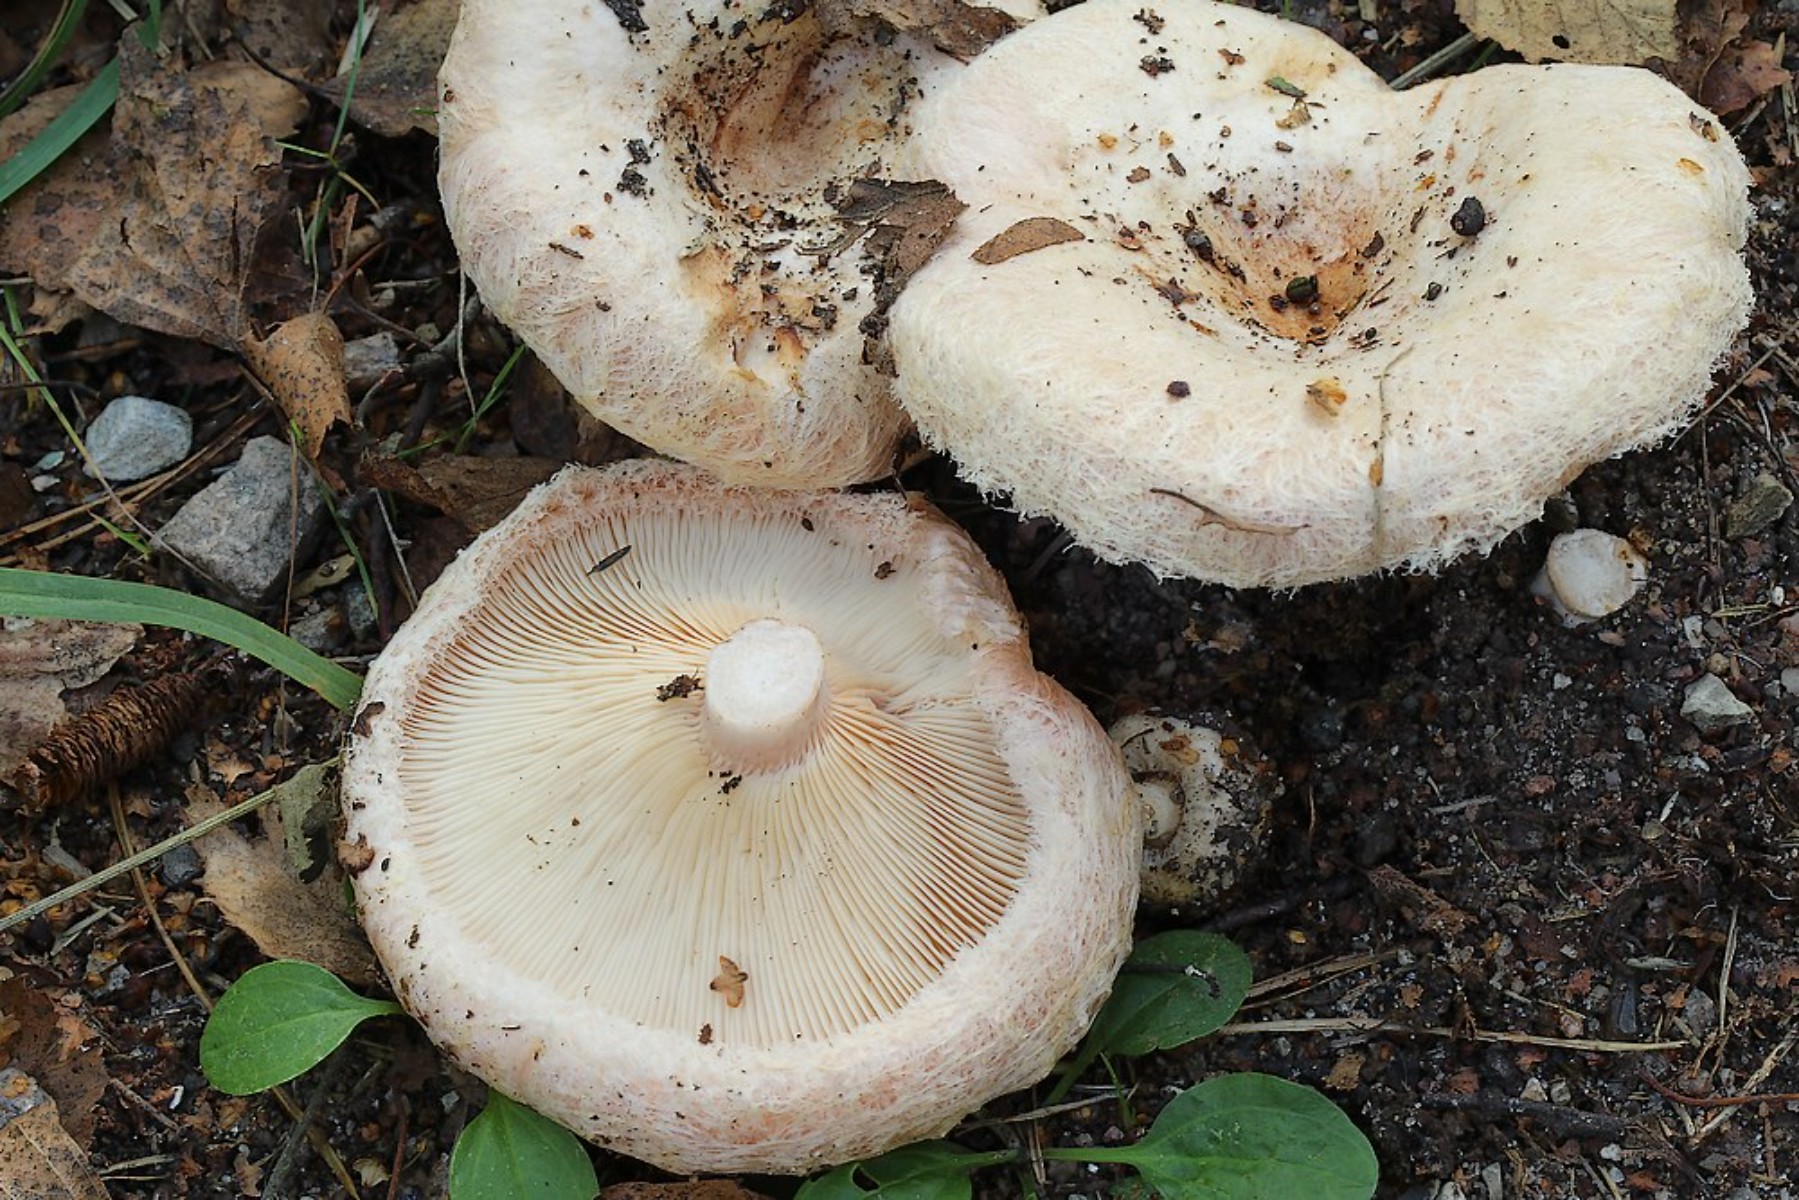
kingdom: Fungi
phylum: Basidiomycota
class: Agaricomycetes
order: Russulales
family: Russulaceae
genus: Lactarius
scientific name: Lactarius pubescens
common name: dunet mælkehat
